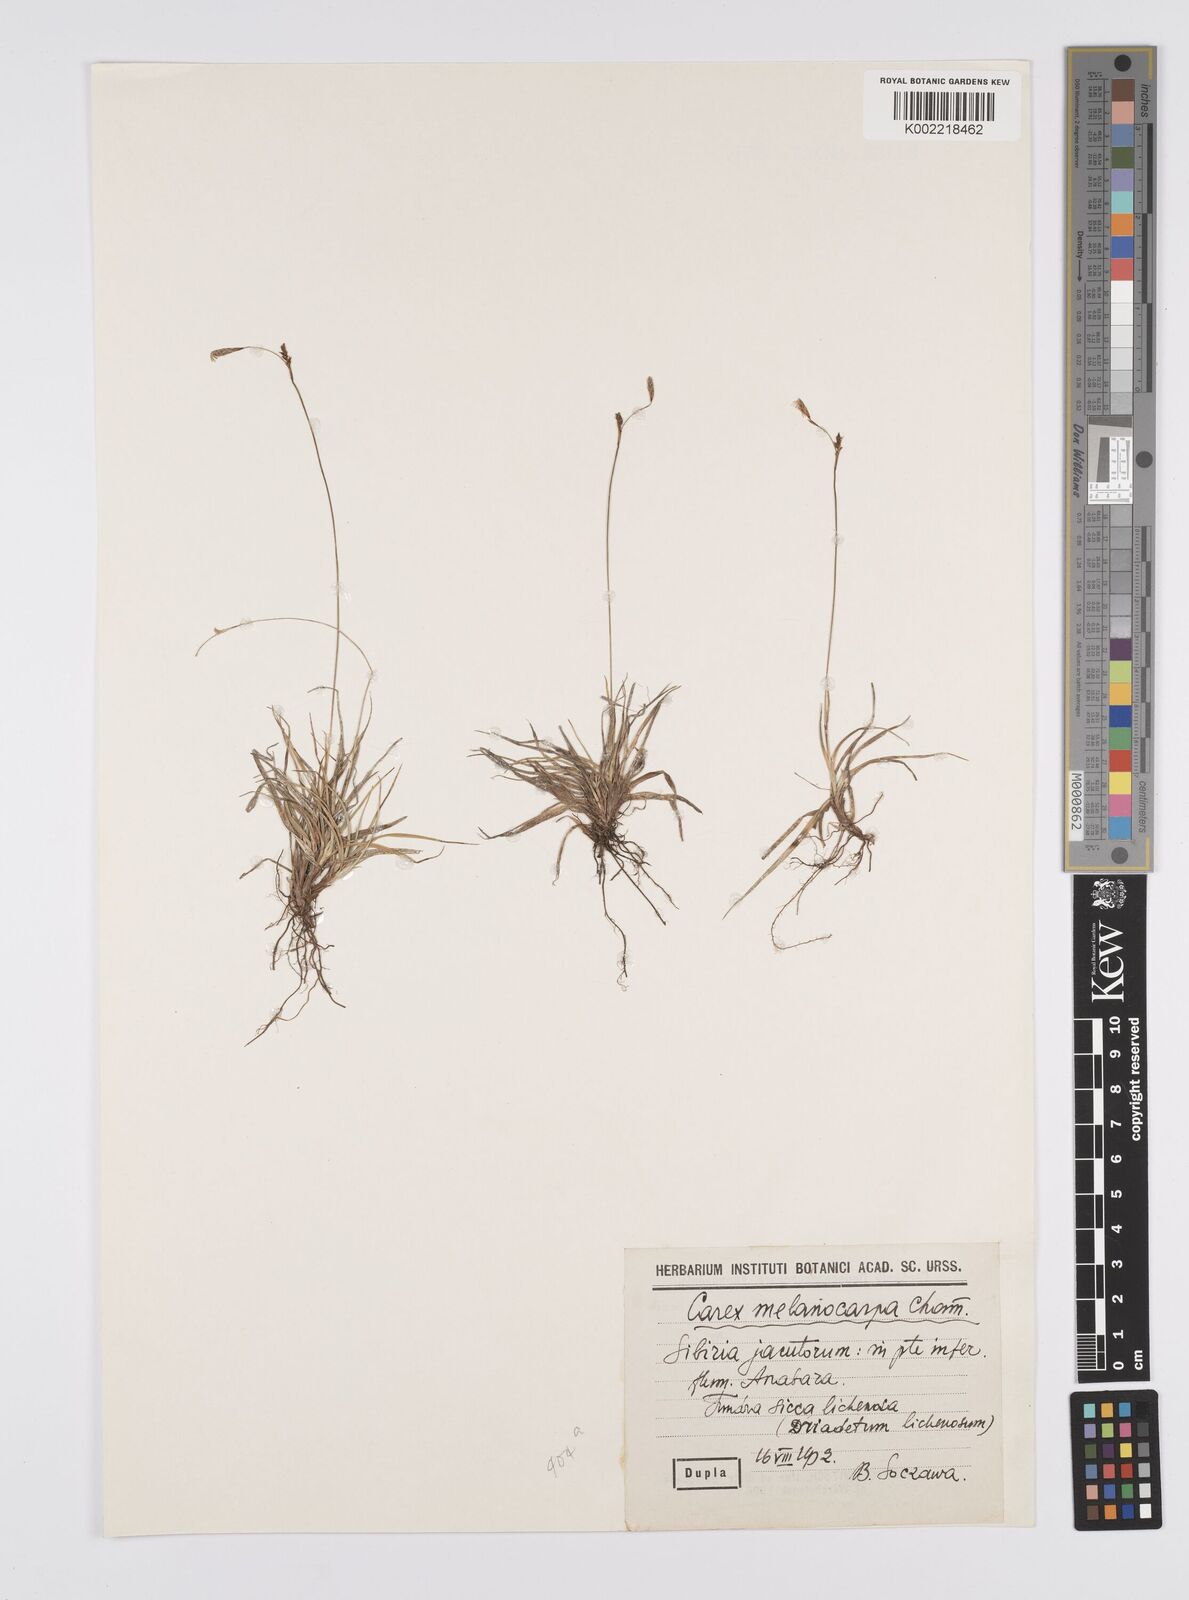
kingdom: Plantae
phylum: Tracheophyta
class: Liliopsida
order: Poales
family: Cyperaceae
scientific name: Cyperaceae
